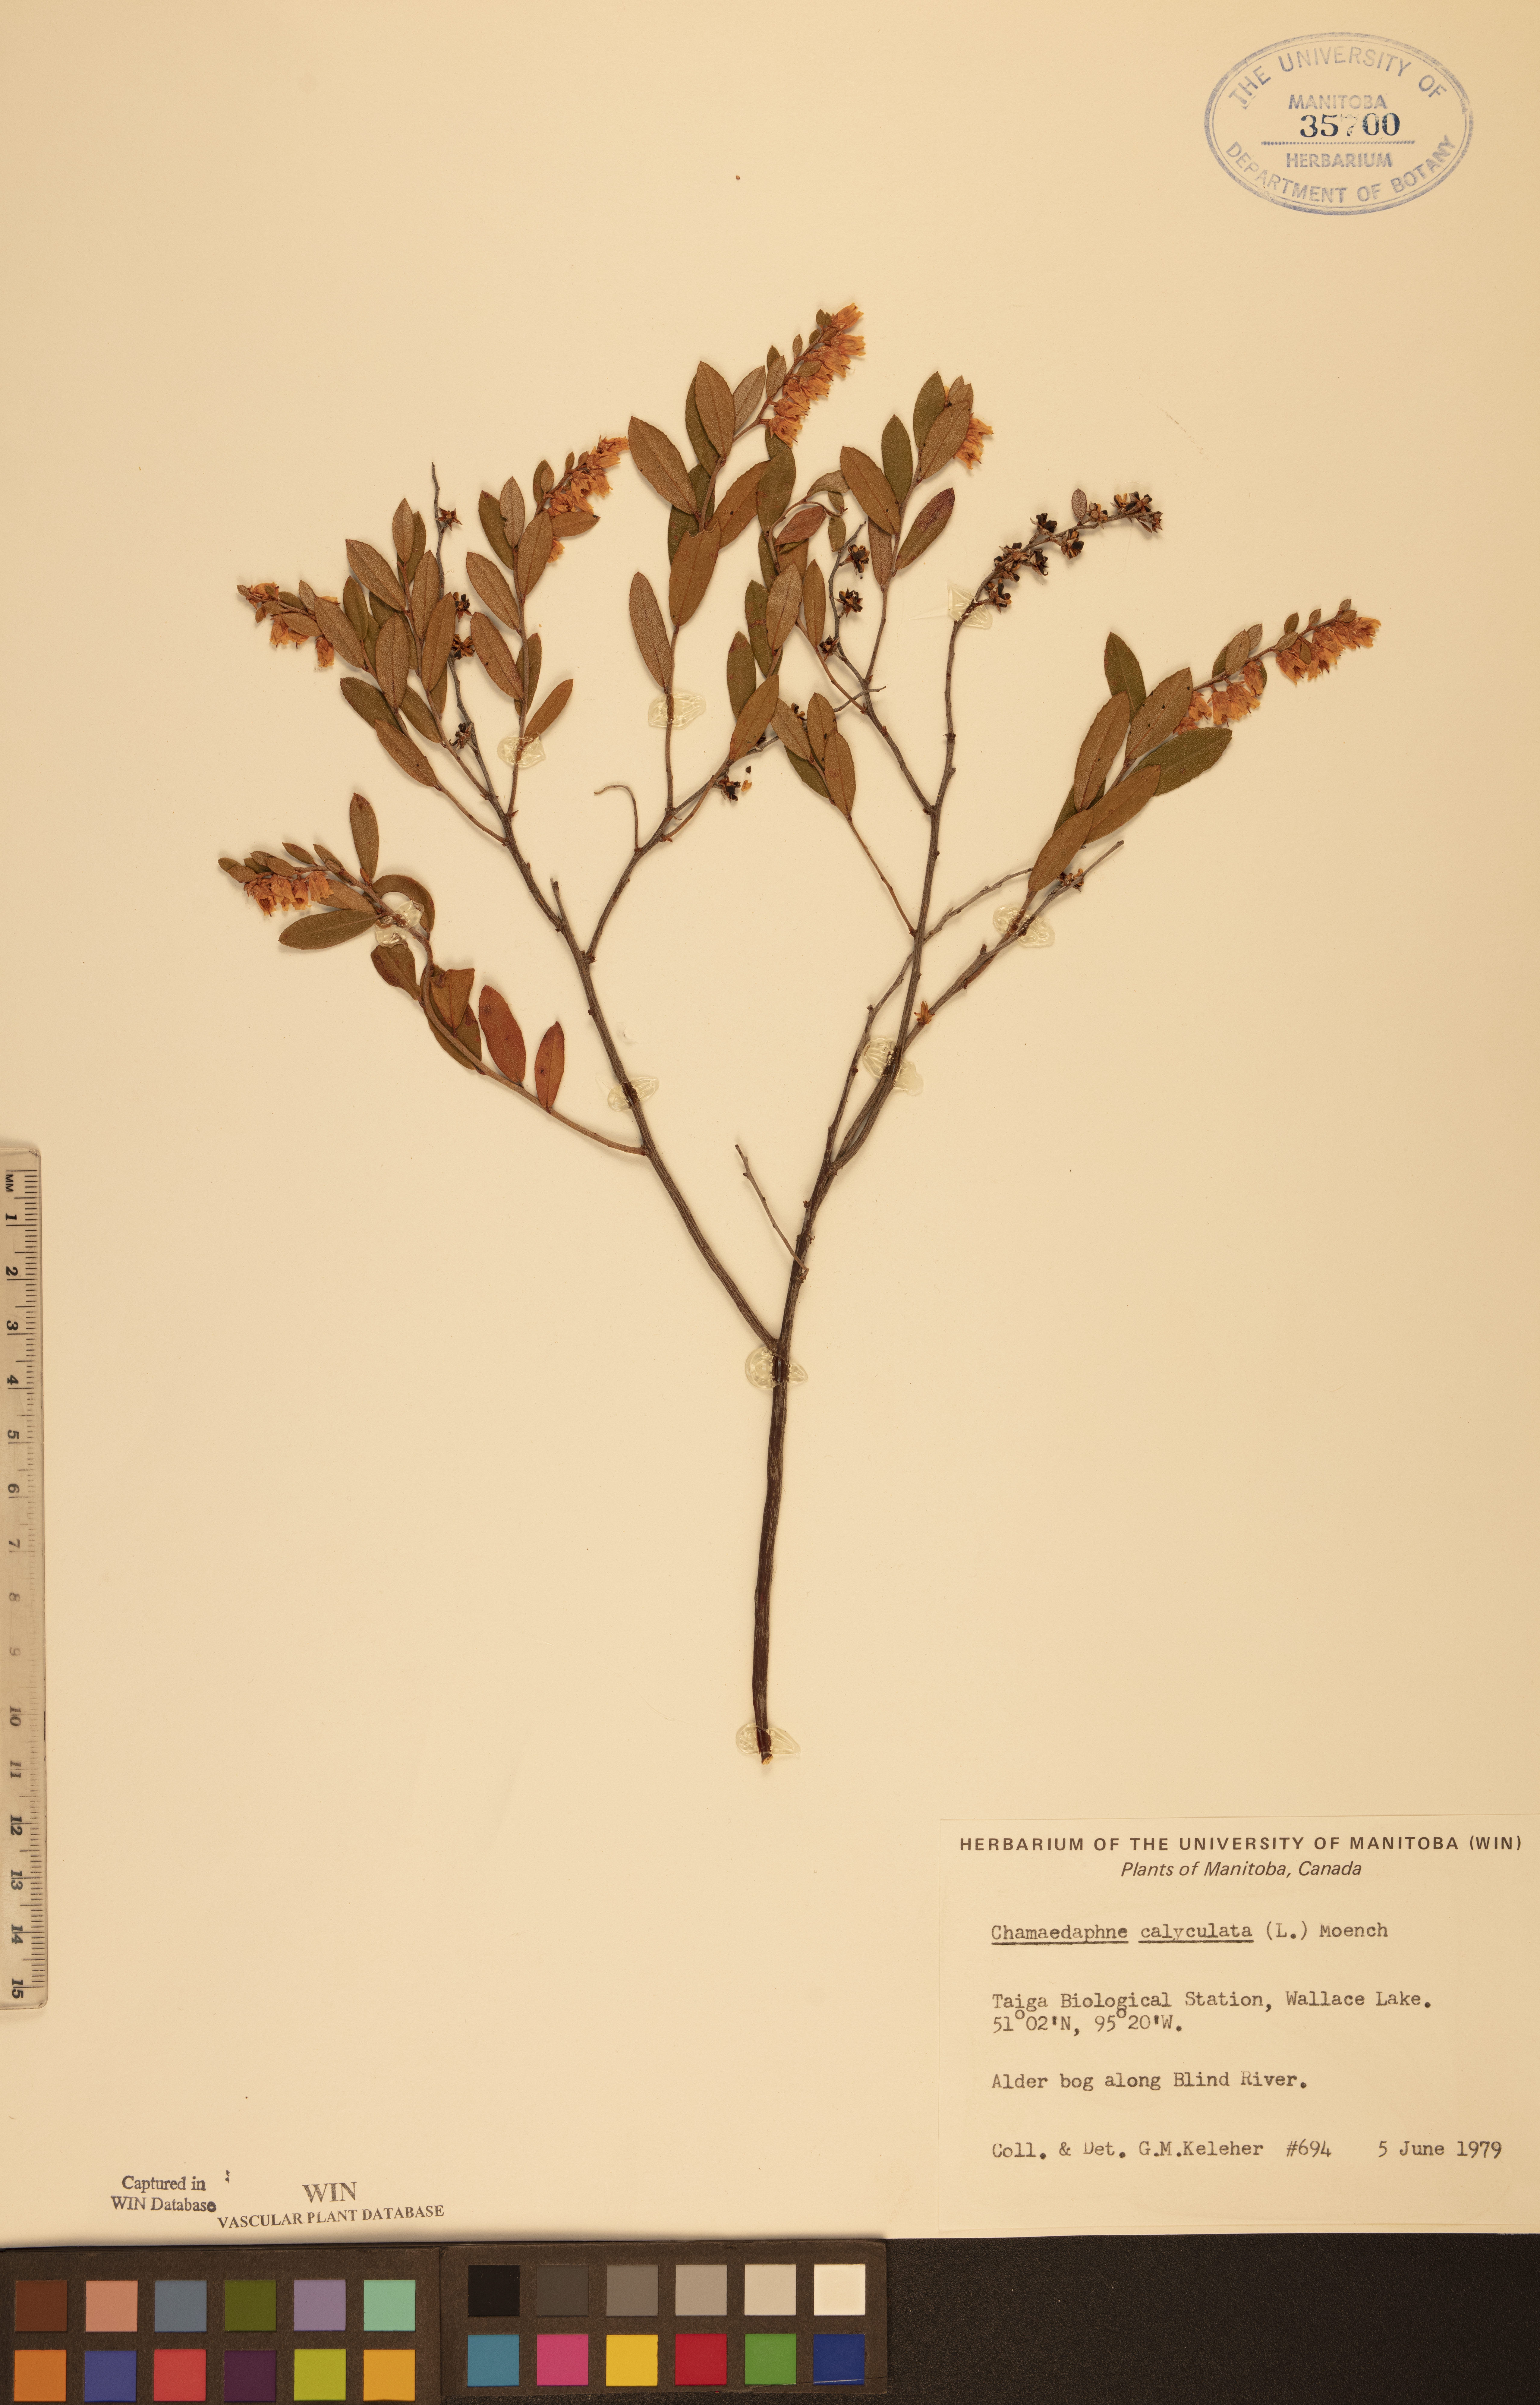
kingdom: Plantae
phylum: Tracheophyta
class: Magnoliopsida
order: Ericales
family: Ericaceae
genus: Chamaedaphne
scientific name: Chamaedaphne calyculata
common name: Leatherleaf
